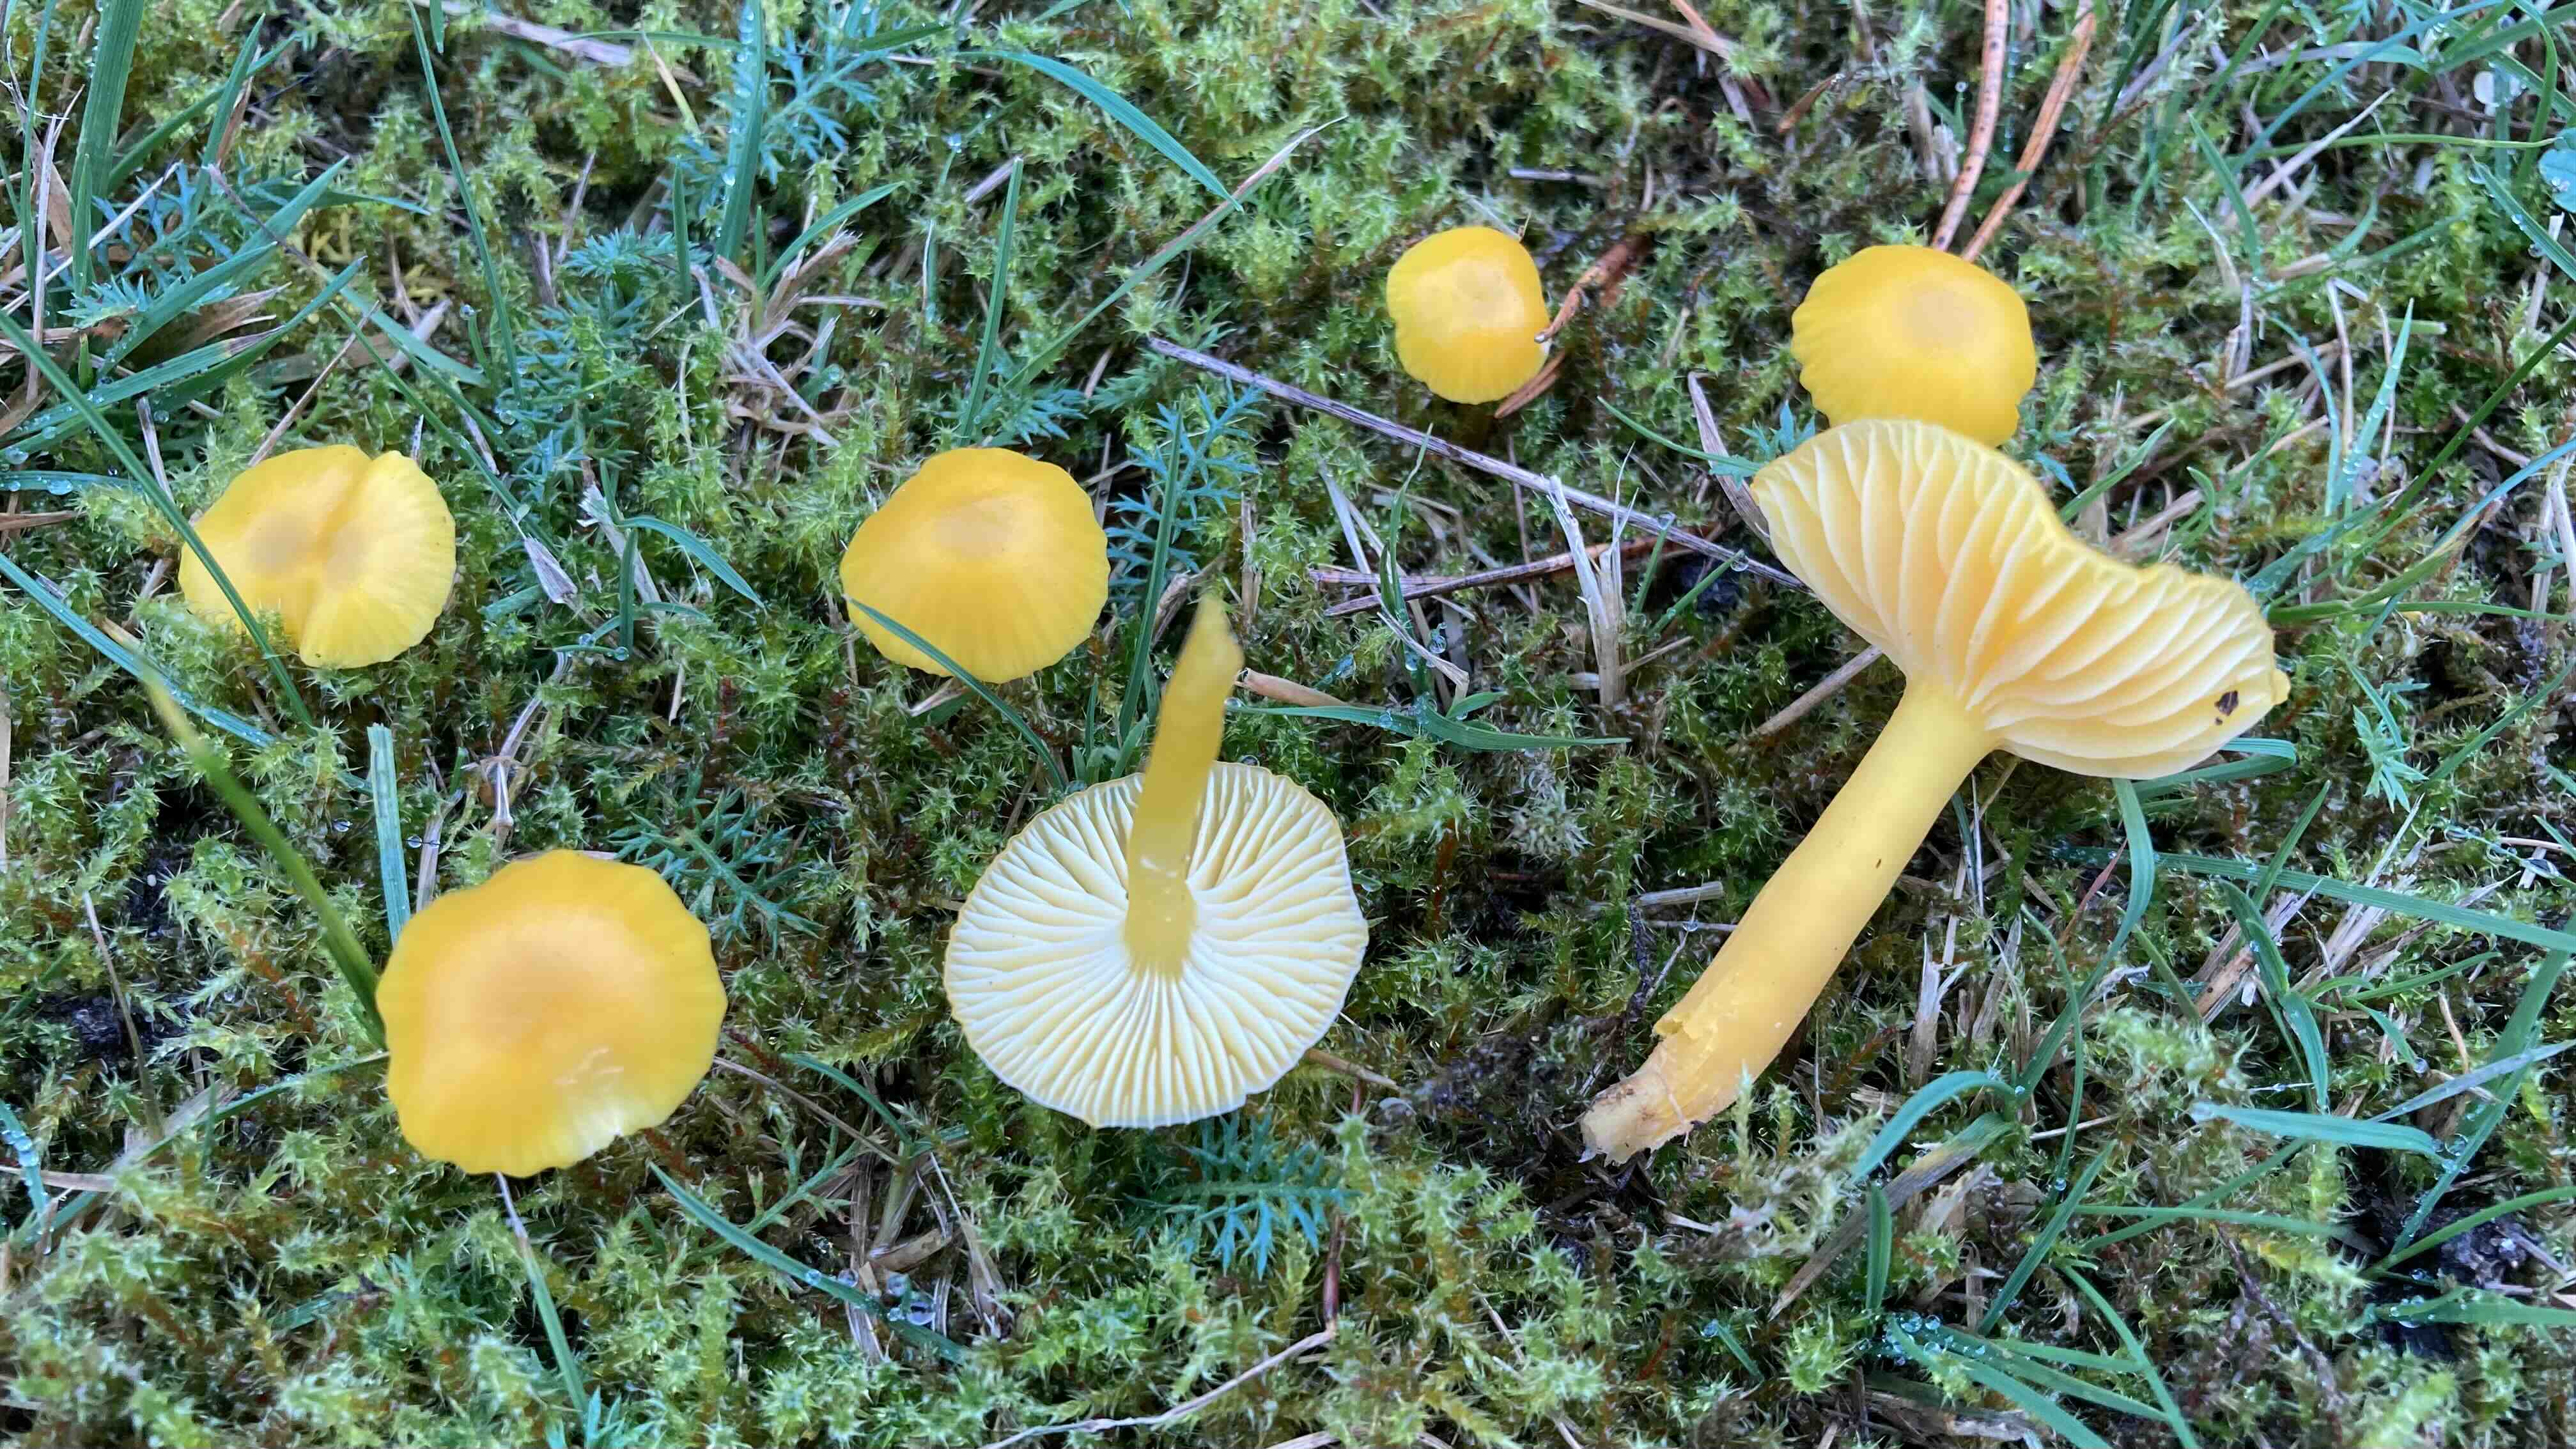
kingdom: Fungi
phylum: Basidiomycota
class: Agaricomycetes
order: Agaricales
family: Hygrophoraceae
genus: Hygrocybe
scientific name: Hygrocybe ceracea
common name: voksgul vokshat
